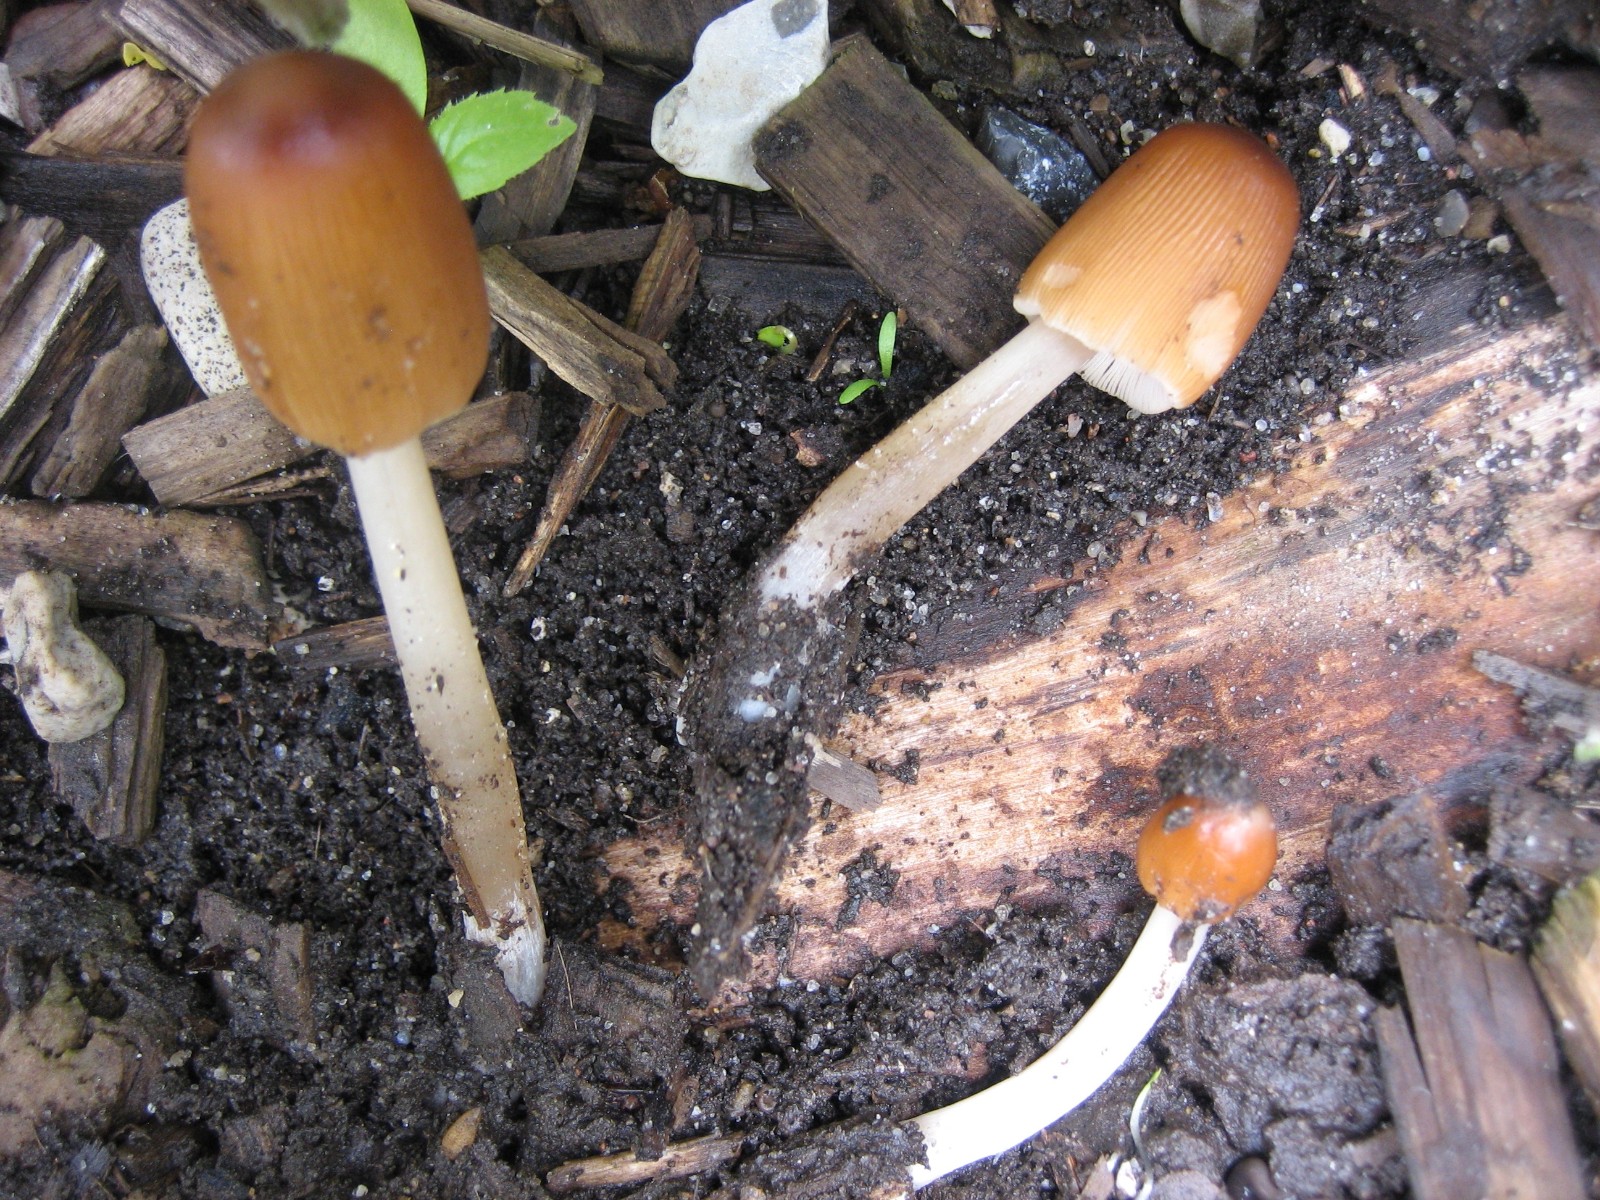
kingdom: Fungi
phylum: Basidiomycota
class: Agaricomycetes
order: Agaricales
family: Psathyrellaceae
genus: Parasola
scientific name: Parasola
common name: hjulhat
